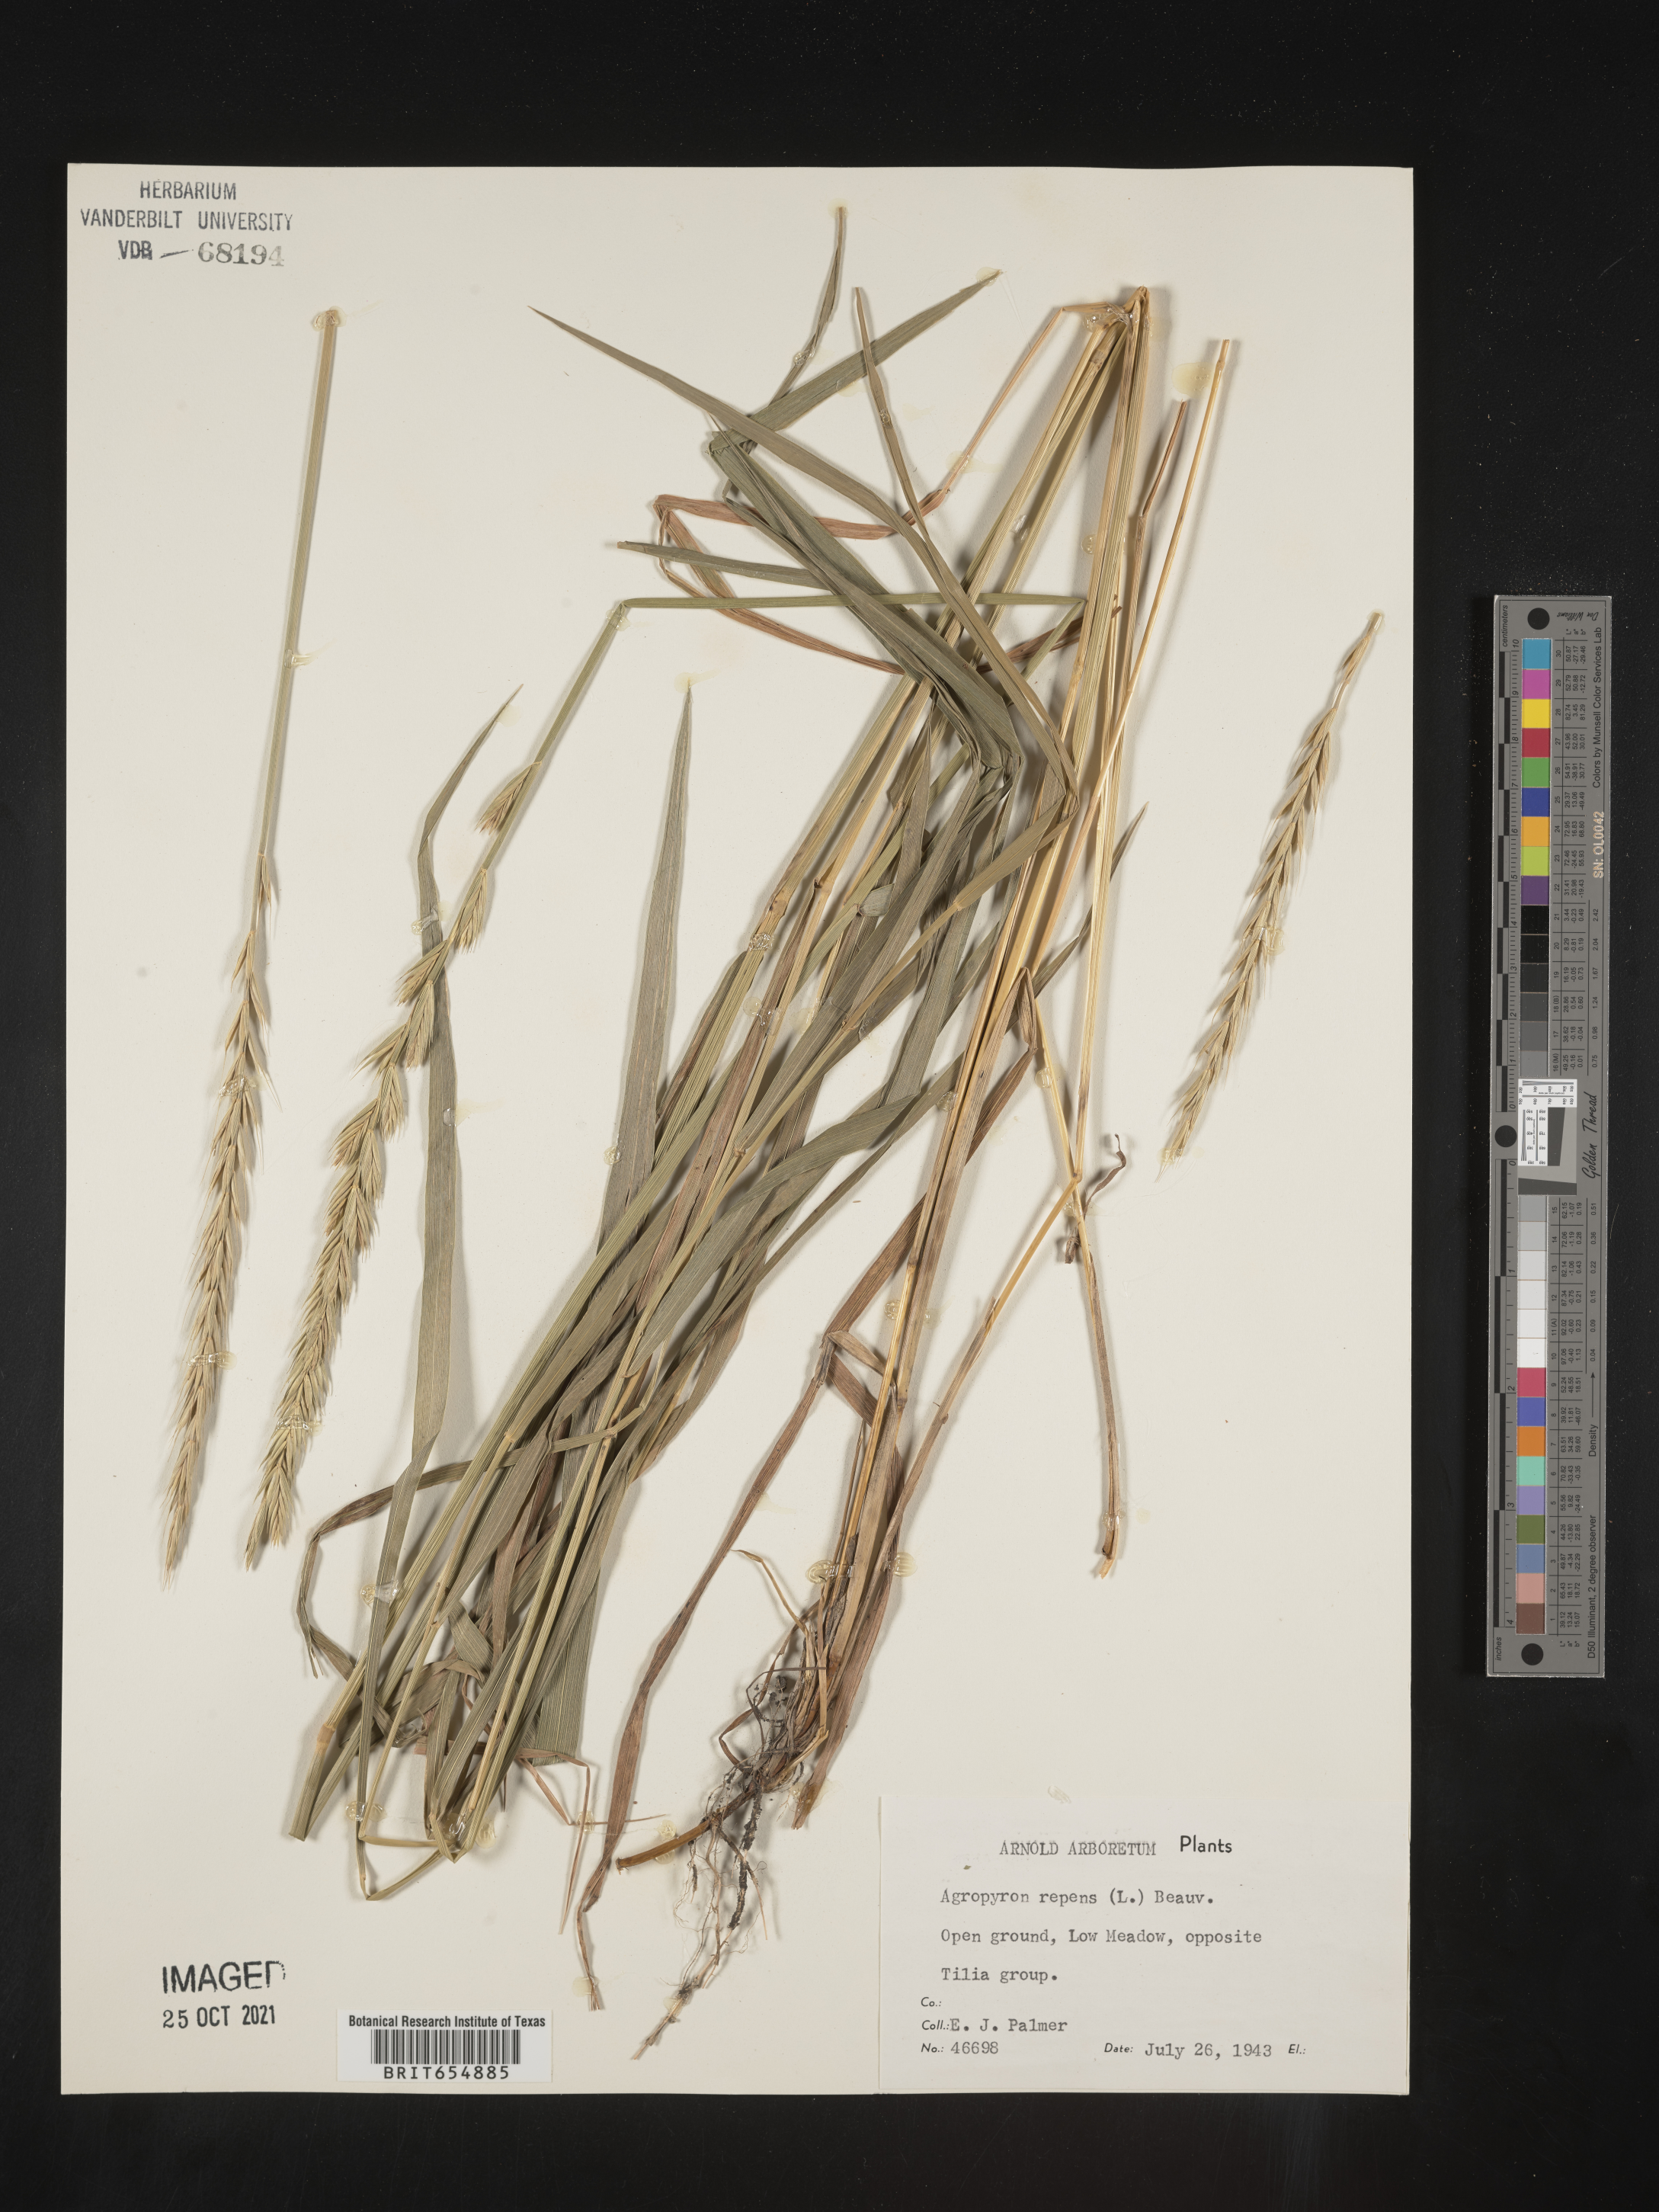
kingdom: Plantae
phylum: Tracheophyta
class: Liliopsida
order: Poales
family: Poaceae
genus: Agropyron
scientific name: Agropyron
